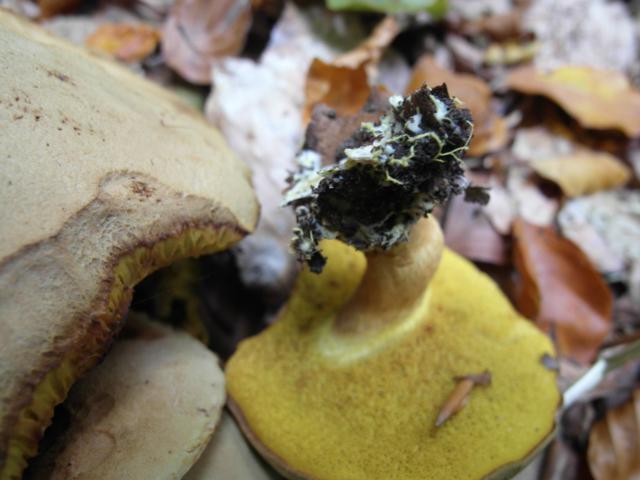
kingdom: Fungi
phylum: Basidiomycota
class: Agaricomycetes
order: Boletales
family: Boletaceae
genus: Xerocomus
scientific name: Xerocomus ferrugineus
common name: vaskeskinds-rørhat
